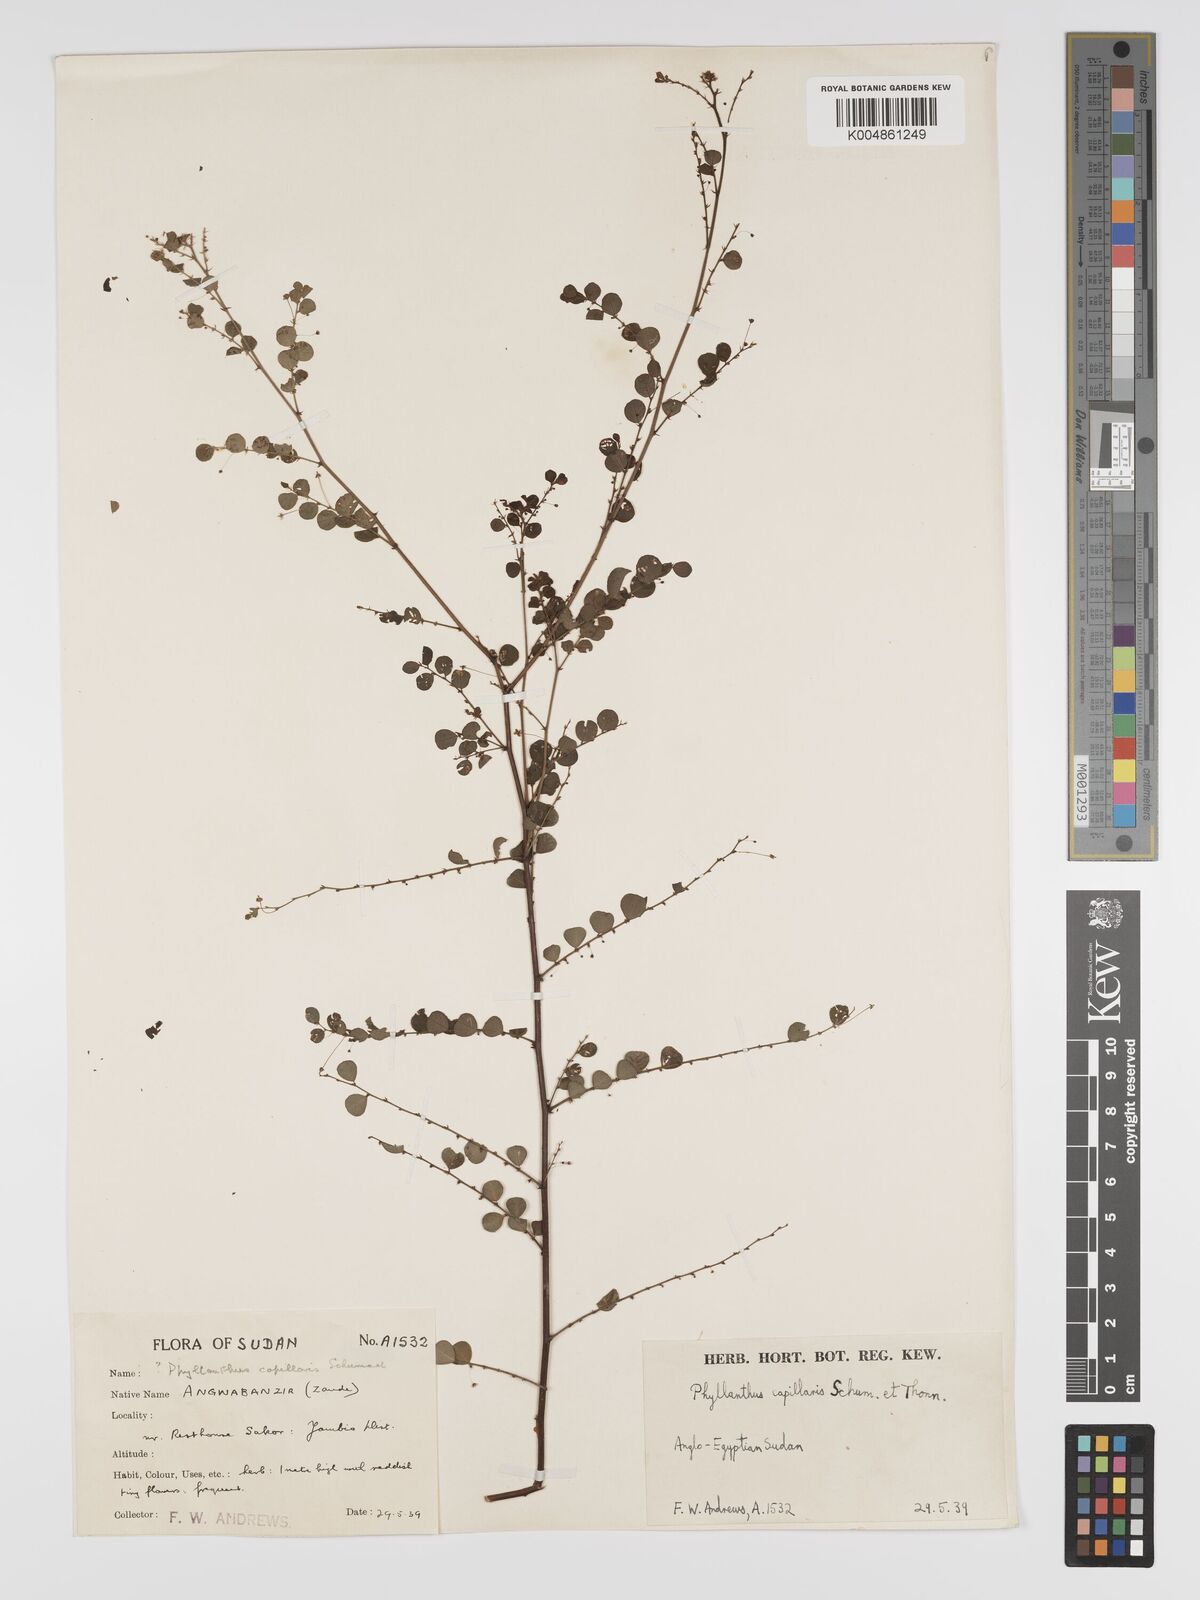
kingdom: Plantae
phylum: Tracheophyta
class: Magnoliopsida
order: Malpighiales
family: Phyllanthaceae
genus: Phyllanthus
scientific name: Phyllanthus nummulariifolius
